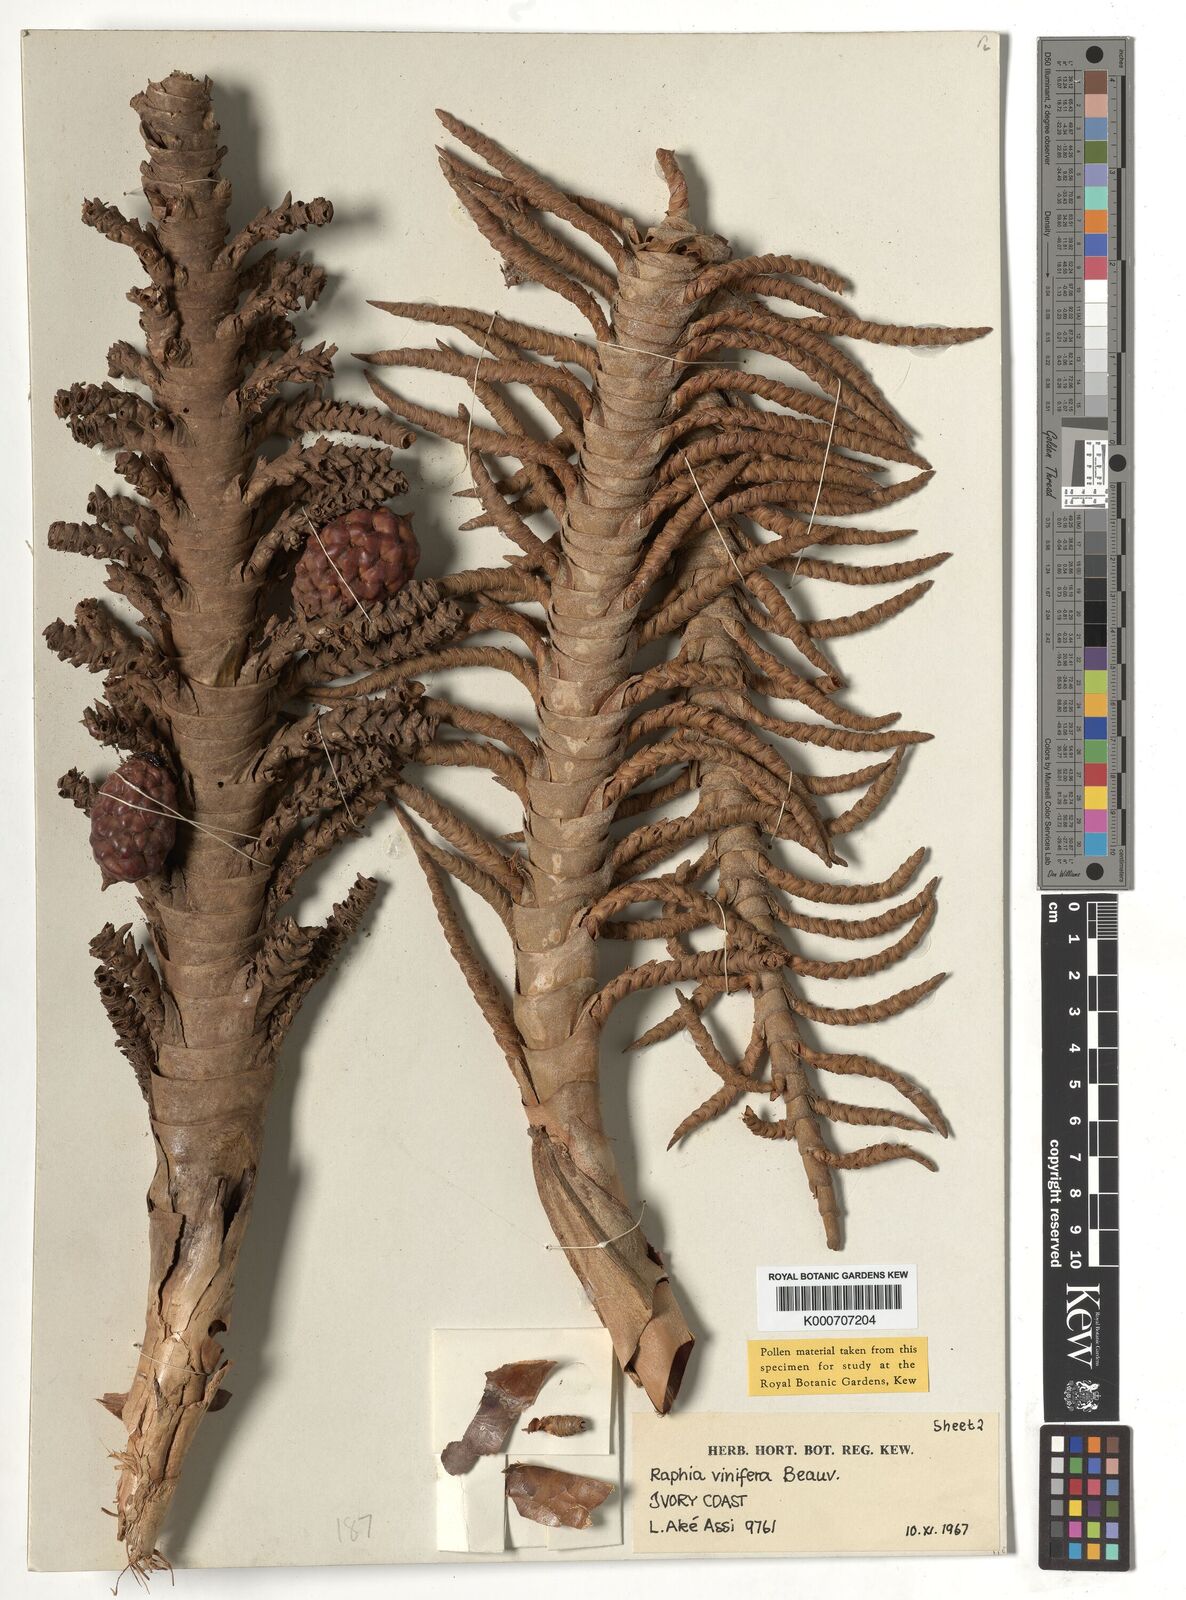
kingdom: Plantae
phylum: Tracheophyta
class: Liliopsida
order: Arecales
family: Arecaceae
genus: Raphia
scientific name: Raphia vinifera
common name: Raphia palm
